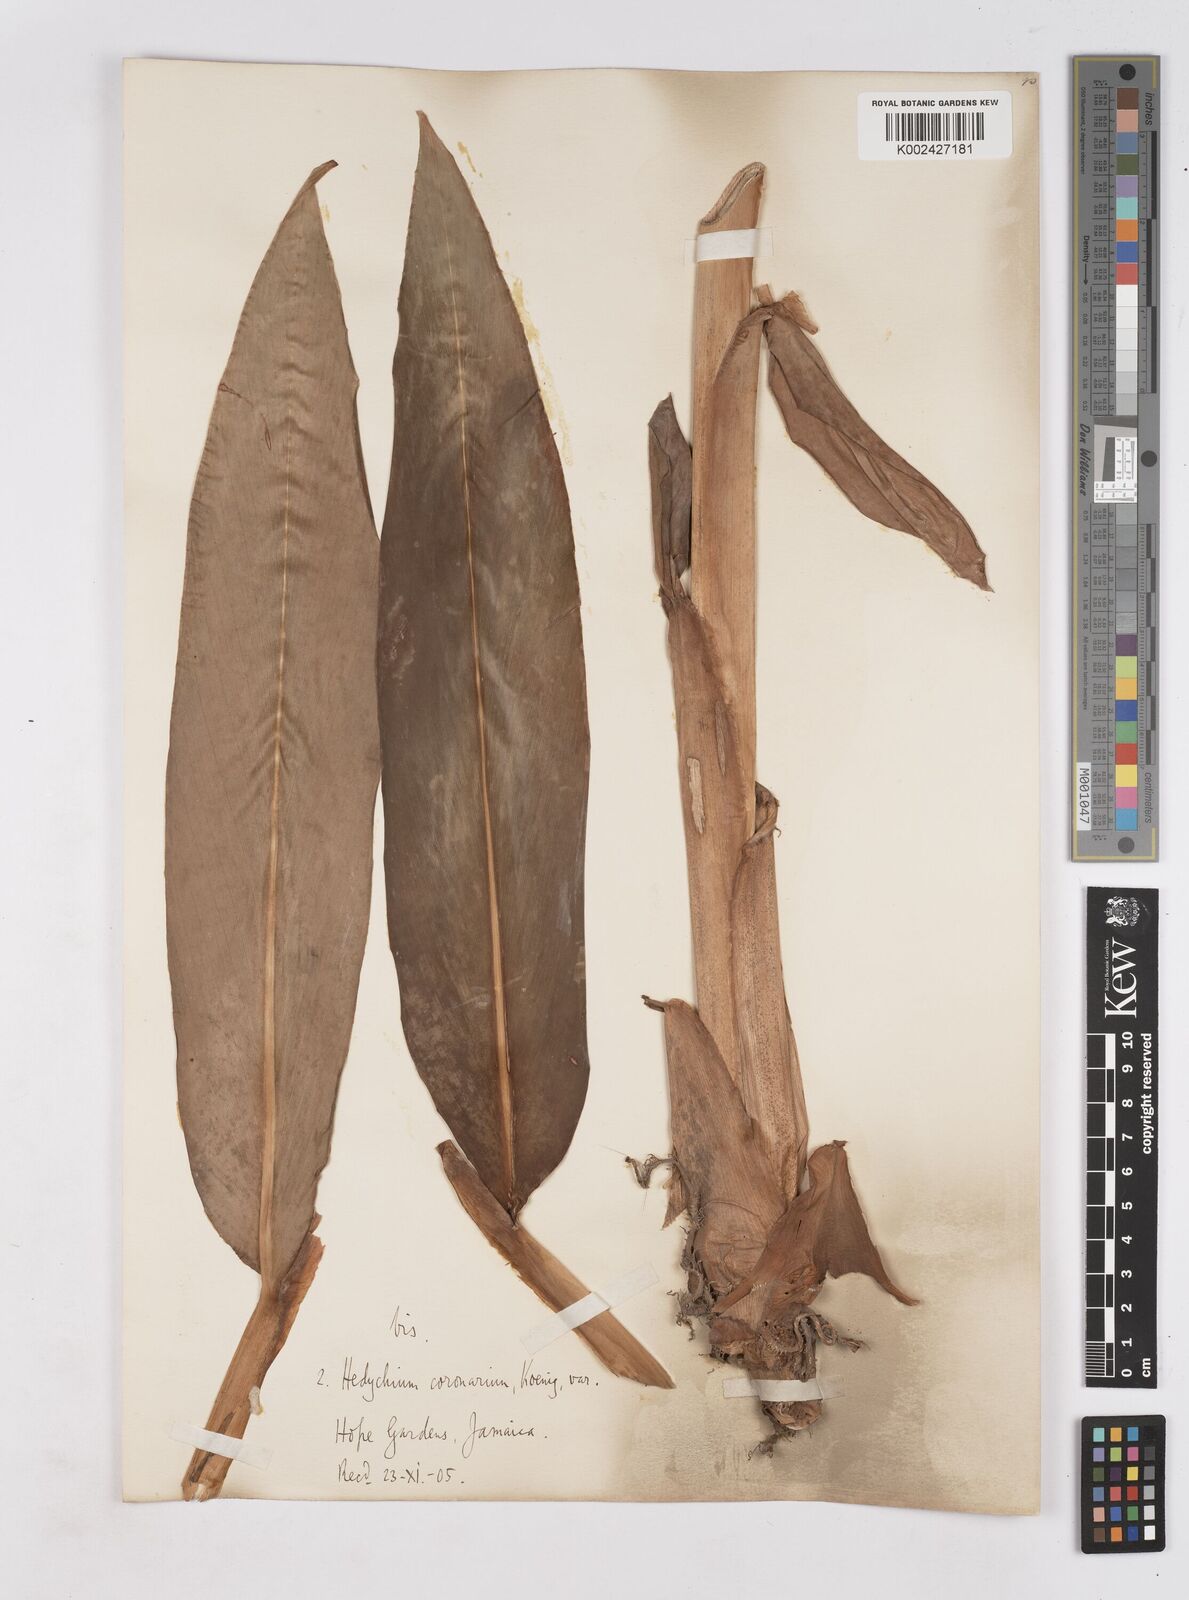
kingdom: Plantae
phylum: Tracheophyta
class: Liliopsida
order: Zingiberales
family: Zingiberaceae
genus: Hedychium
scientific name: Hedychium coronarium
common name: White garland-lily
